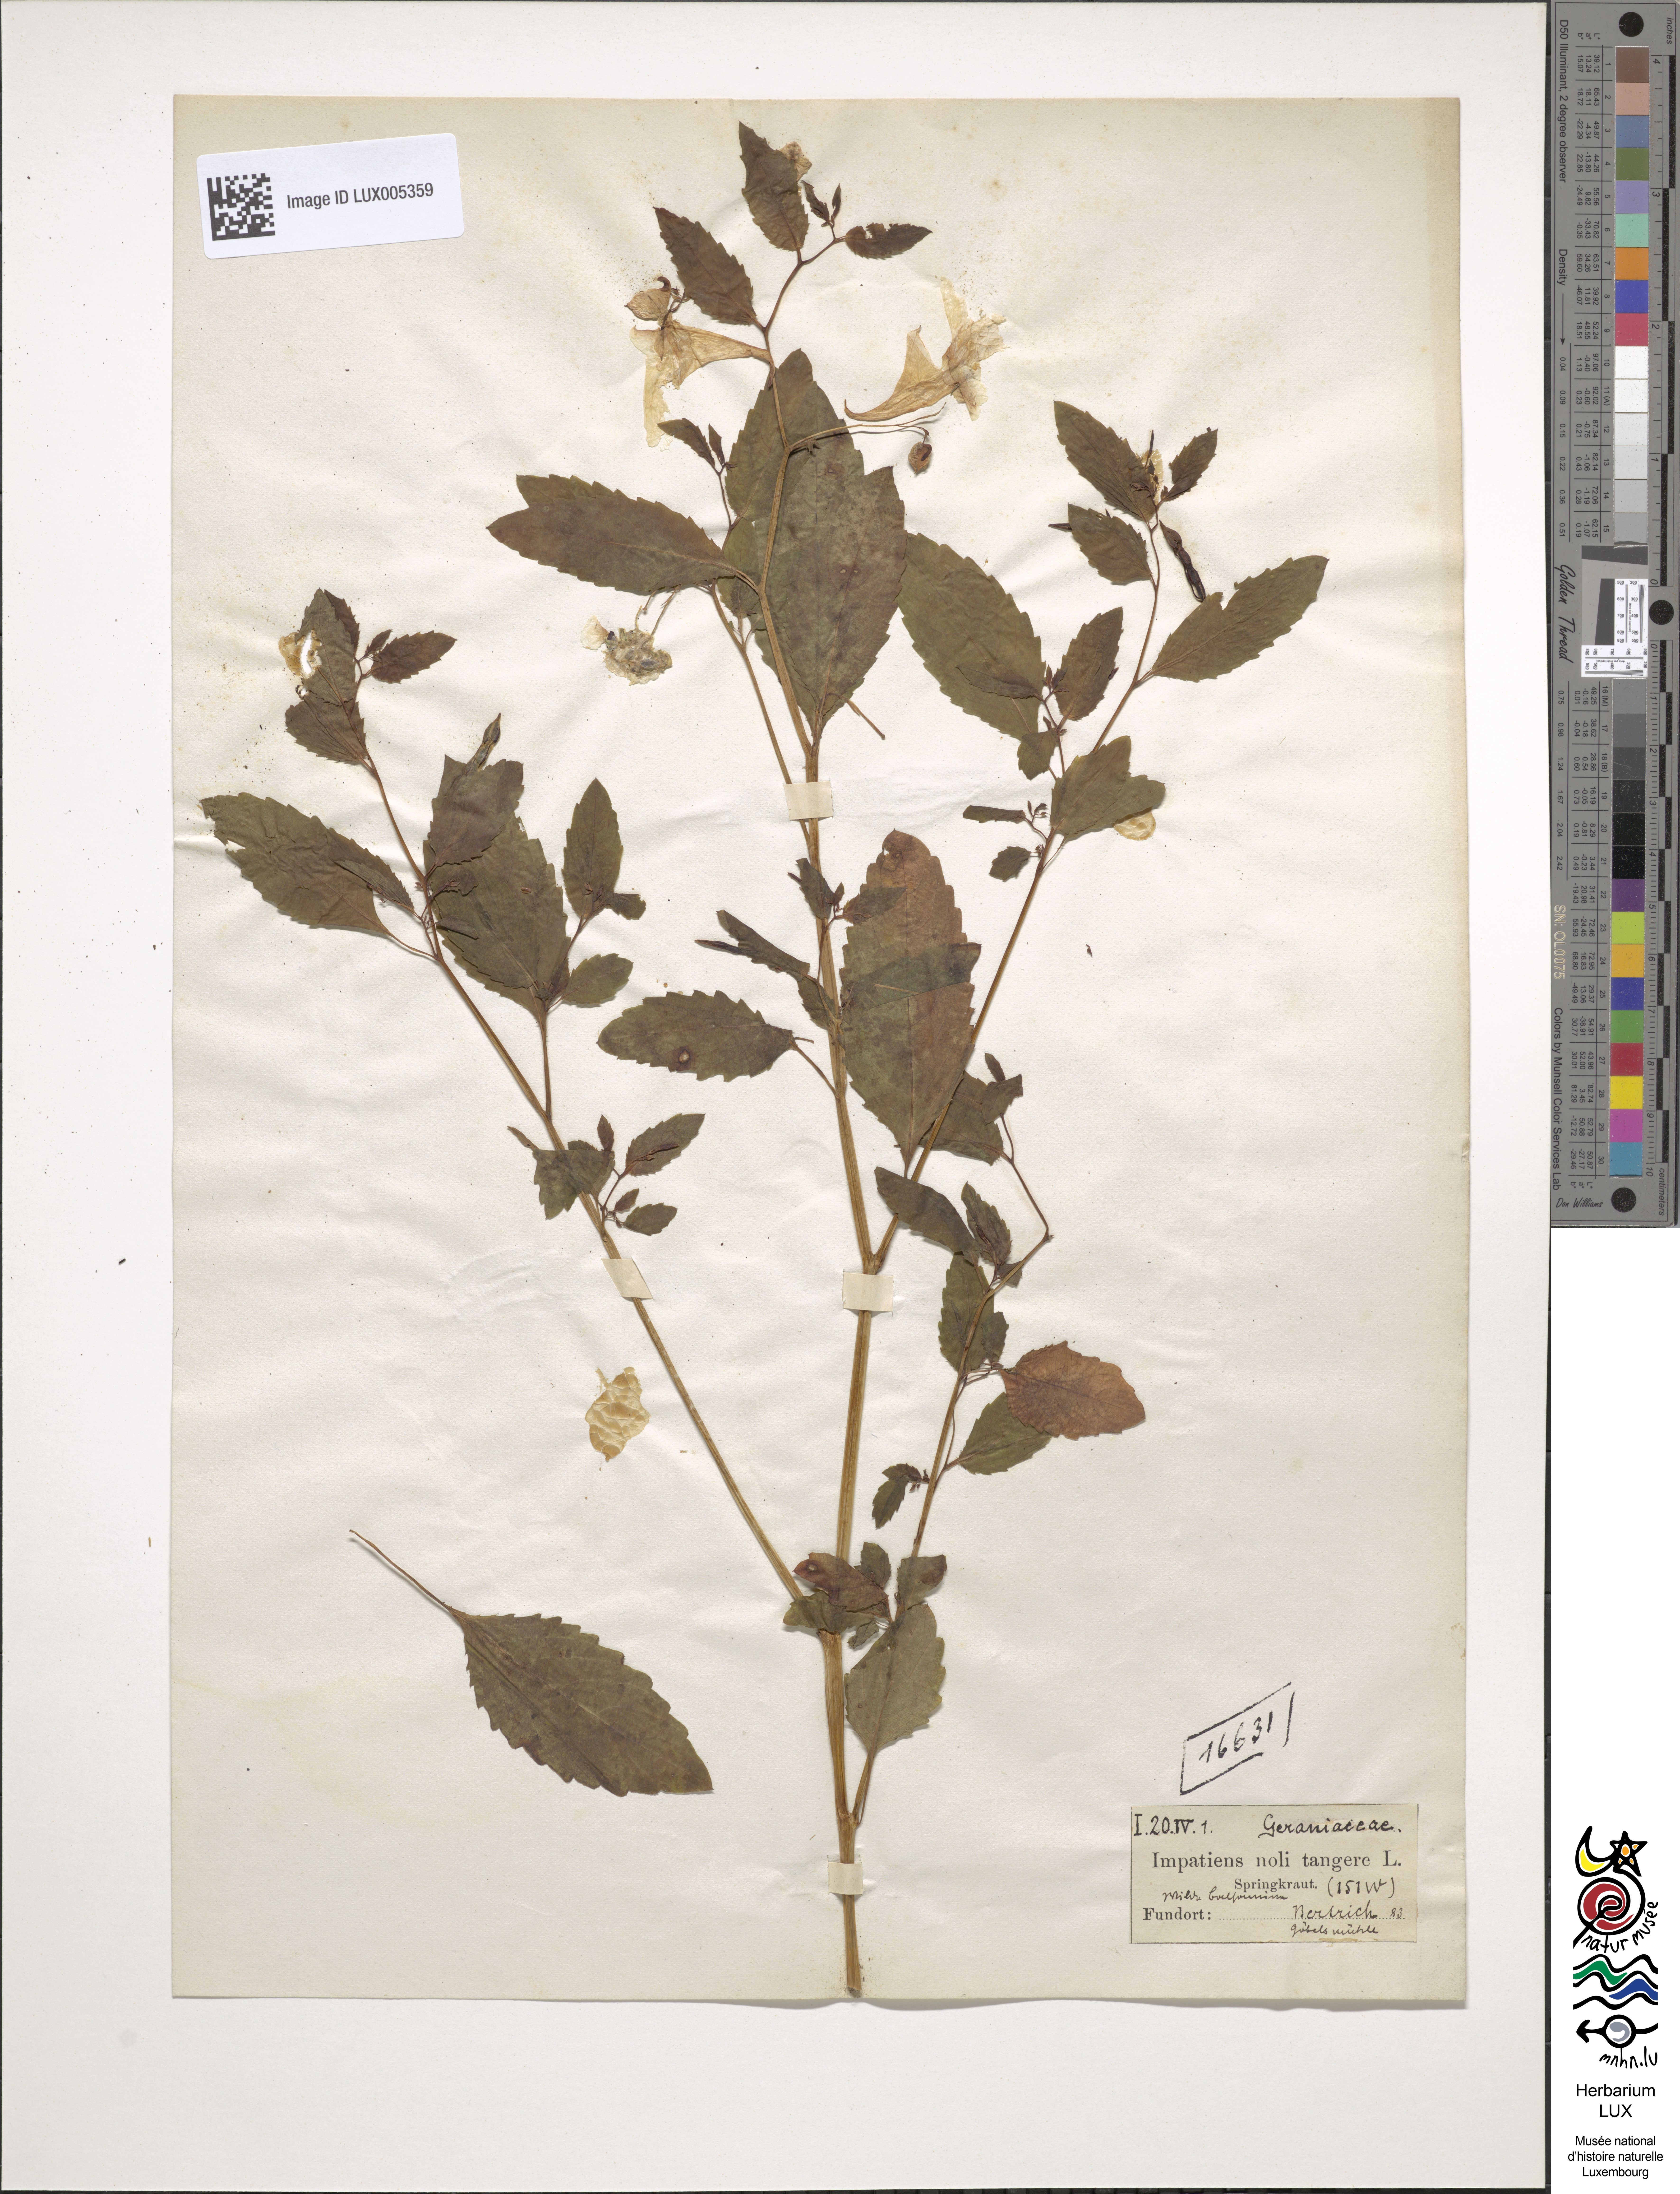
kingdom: Plantae
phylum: Tracheophyta
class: Magnoliopsida
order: Ericales
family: Balsaminaceae
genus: Impatiens
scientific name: Impatiens noli-tangere
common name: Touch-me-not balsam
